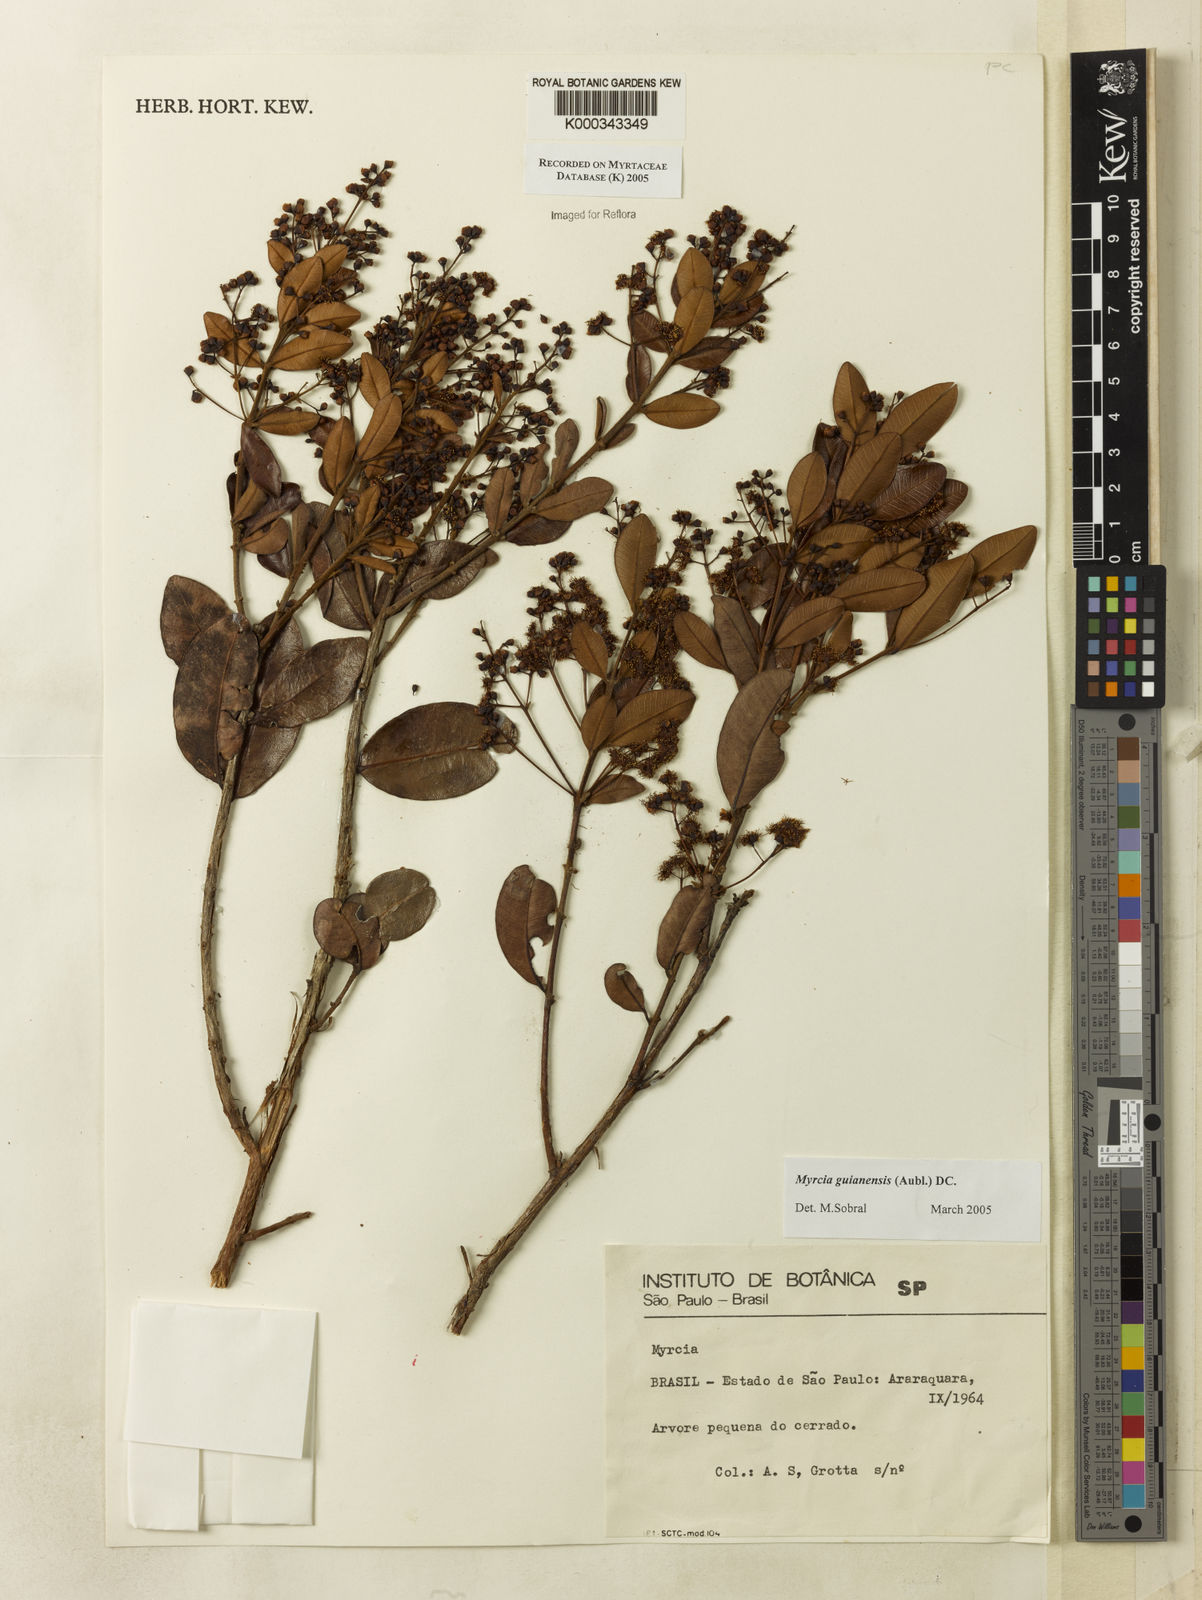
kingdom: Plantae
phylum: Tracheophyta
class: Magnoliopsida
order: Myrtales
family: Myrtaceae
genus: Myrcia
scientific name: Myrcia guianensis
